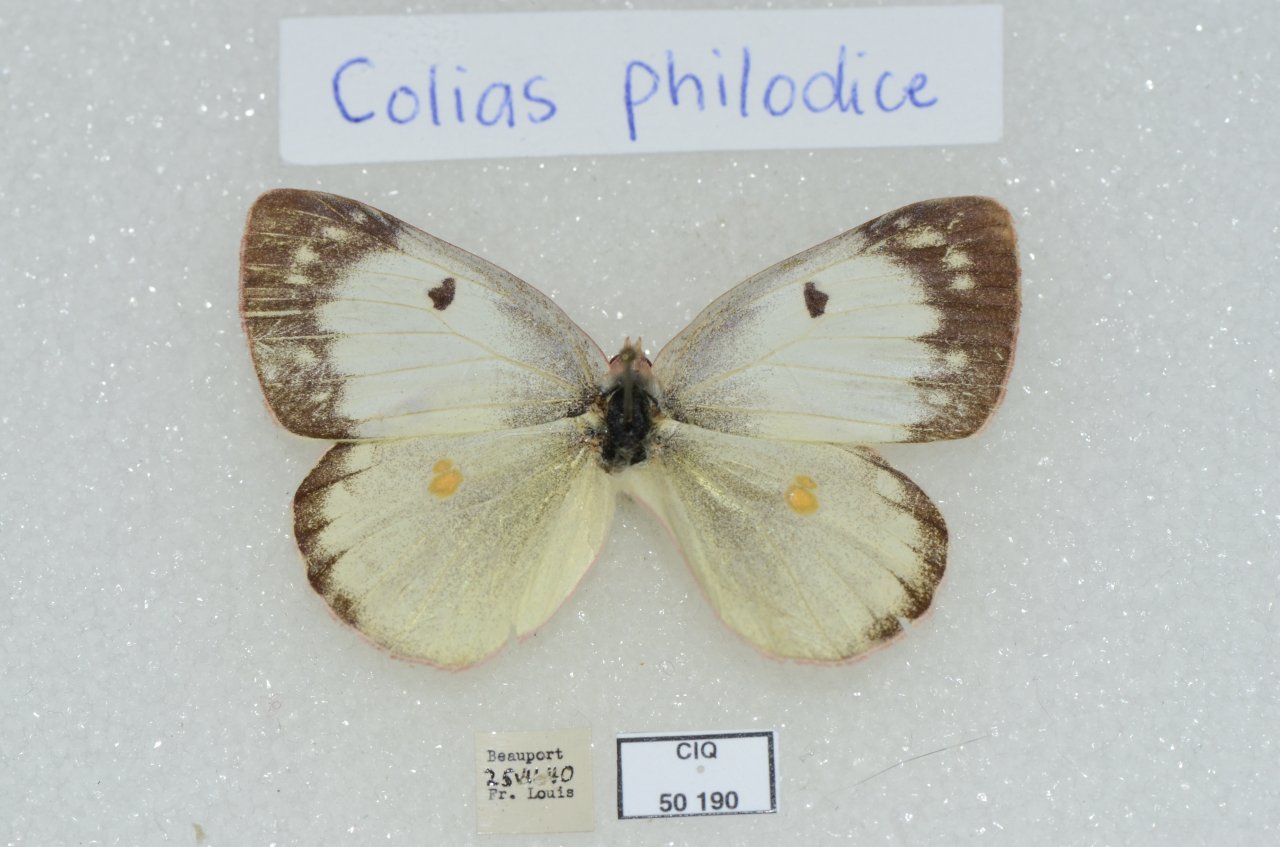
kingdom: Animalia
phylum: Arthropoda
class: Insecta
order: Lepidoptera
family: Pieridae
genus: Colias
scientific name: Colias philodice
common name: Clouded Sulphur
